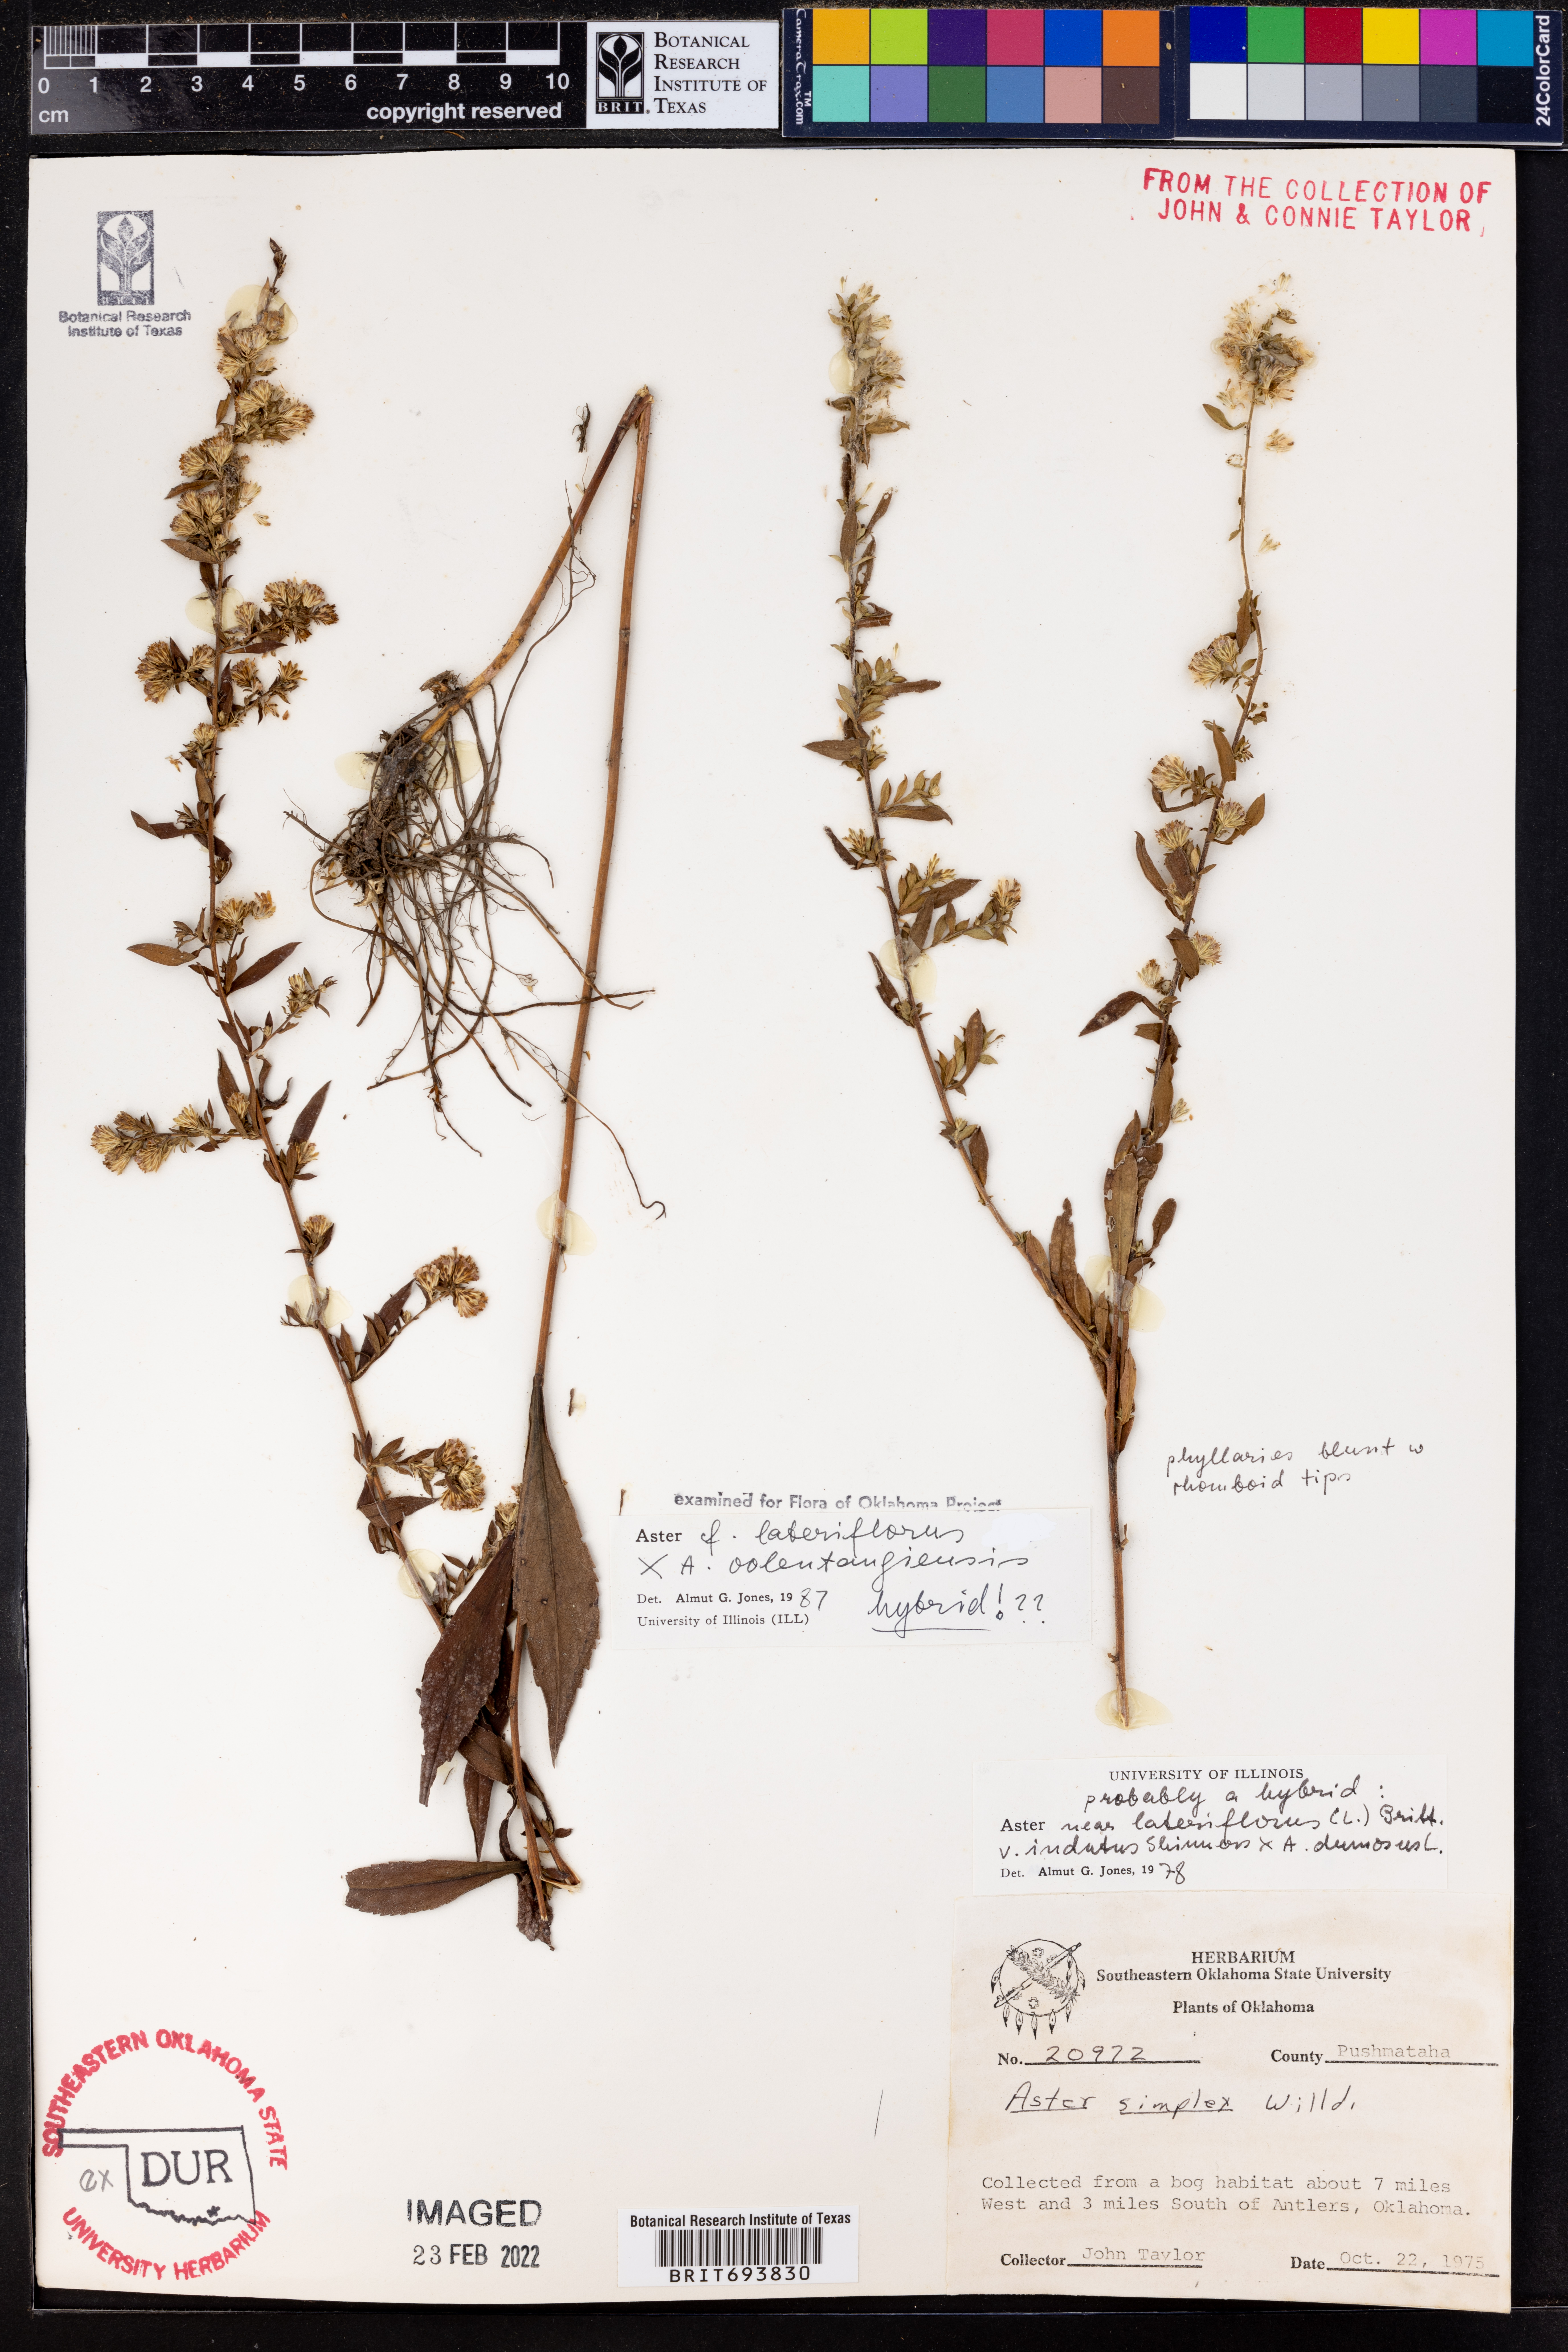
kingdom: Plantae
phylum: Tracheophyta
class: Magnoliopsida
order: Asterales
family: Asteraceae
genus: Symphyotrichum
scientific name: Symphyotrichum
